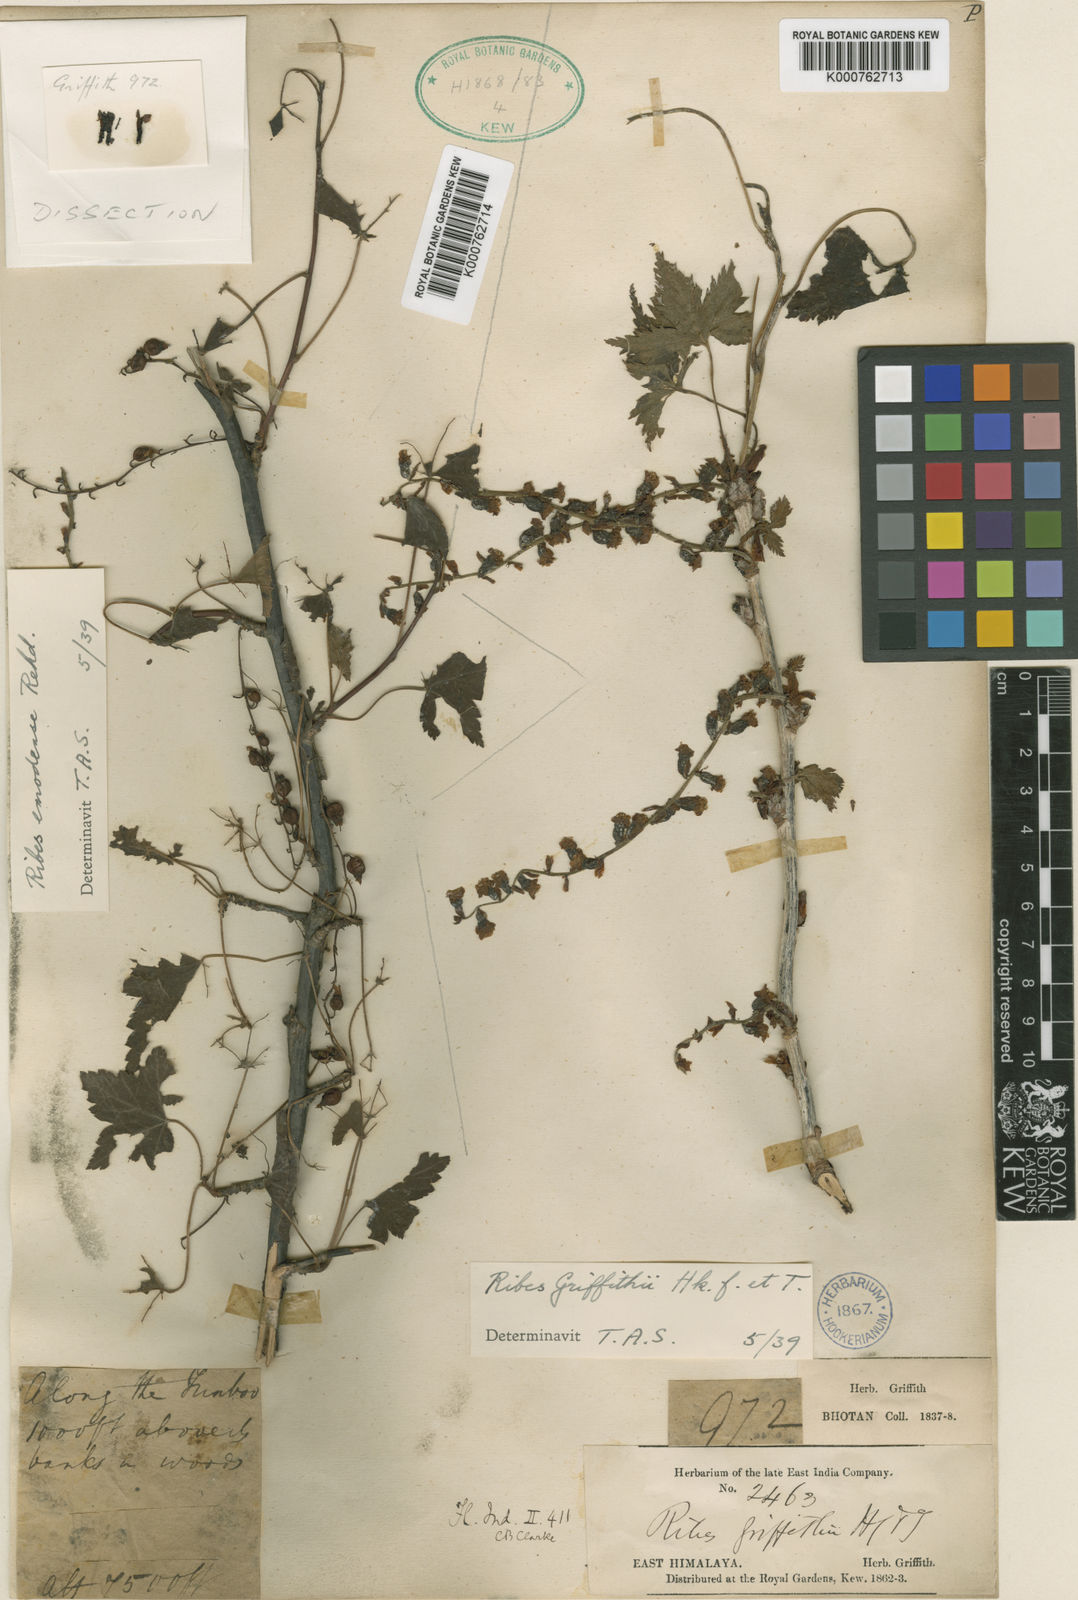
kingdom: Plantae
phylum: Tracheophyta
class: Magnoliopsida
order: Saxifragales
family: Grossulariaceae
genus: Ribes
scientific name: Ribes griffithii
